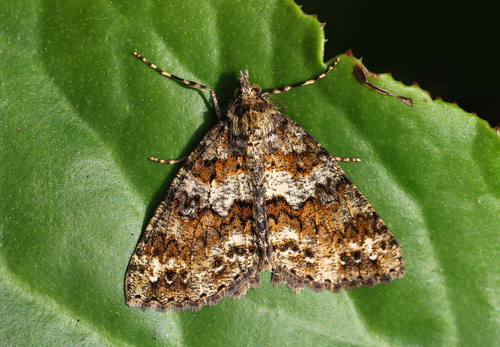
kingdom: Animalia
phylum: Arthropoda
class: Insecta
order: Lepidoptera
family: Geometridae
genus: Ascotis
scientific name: Ascotis fortunata
